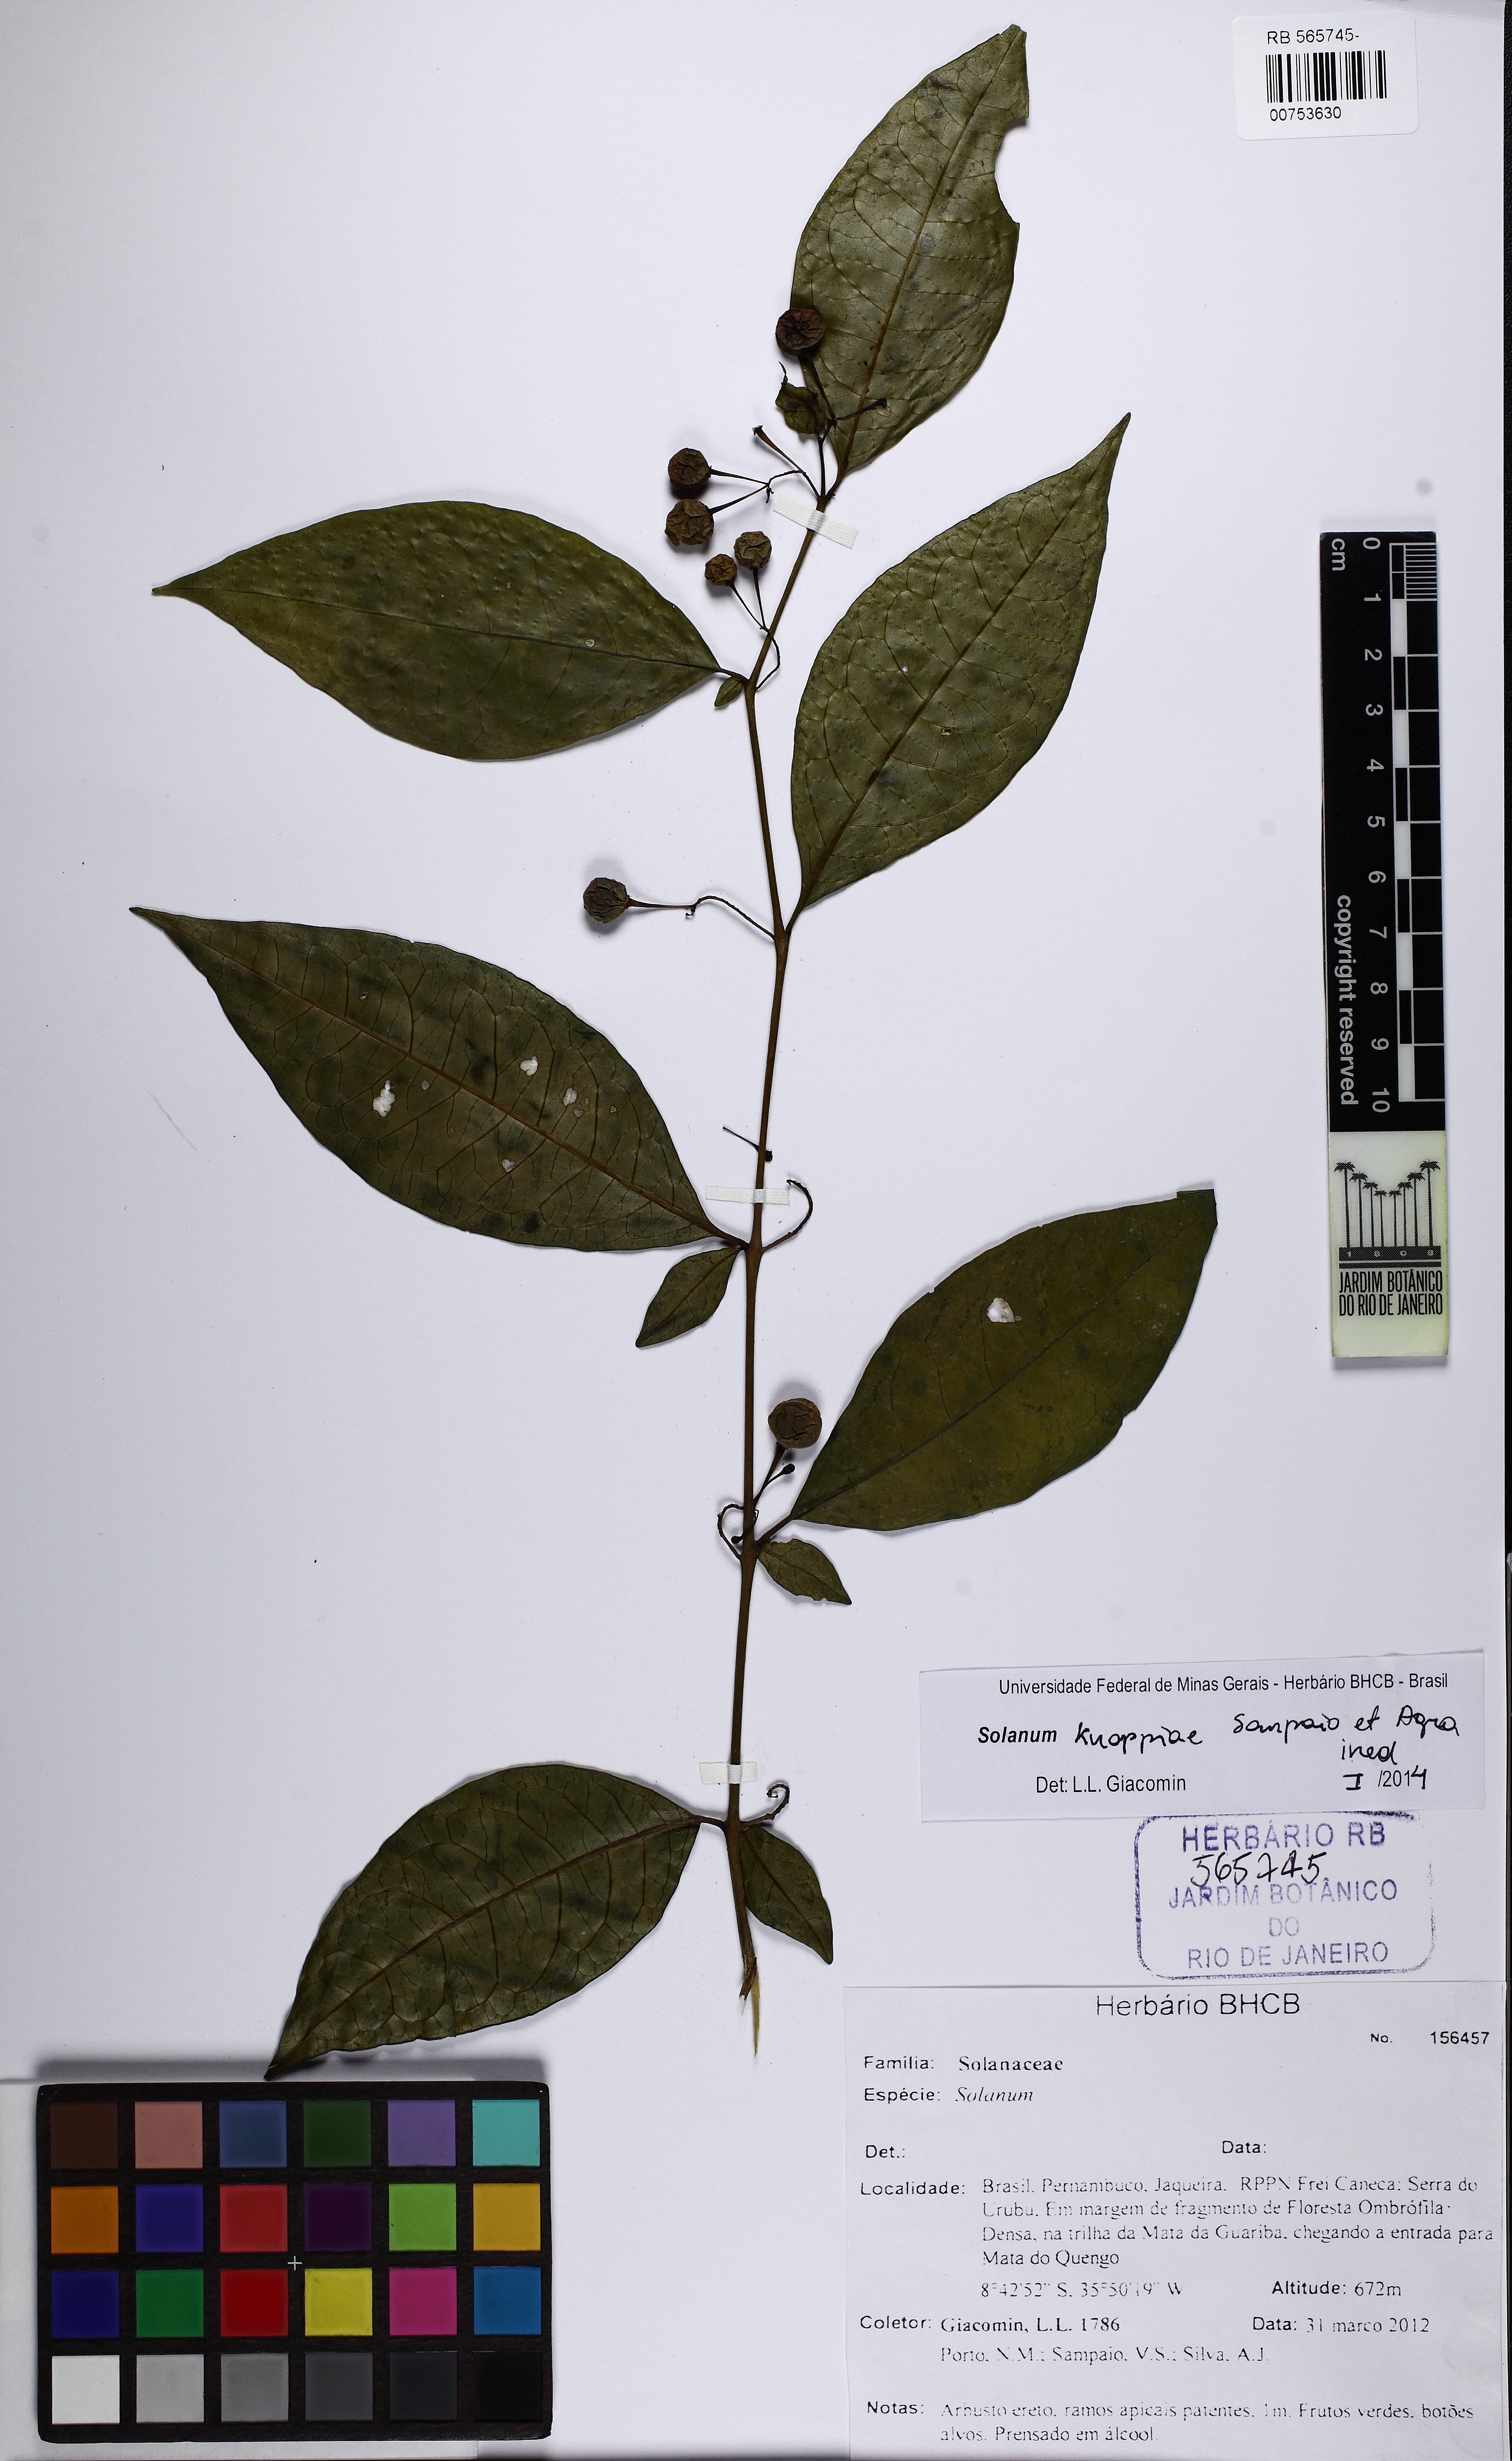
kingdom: Plantae
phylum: Tracheophyta
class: Magnoliopsida
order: Solanales
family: Solanaceae
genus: Solanum
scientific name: Solanum knappiae
